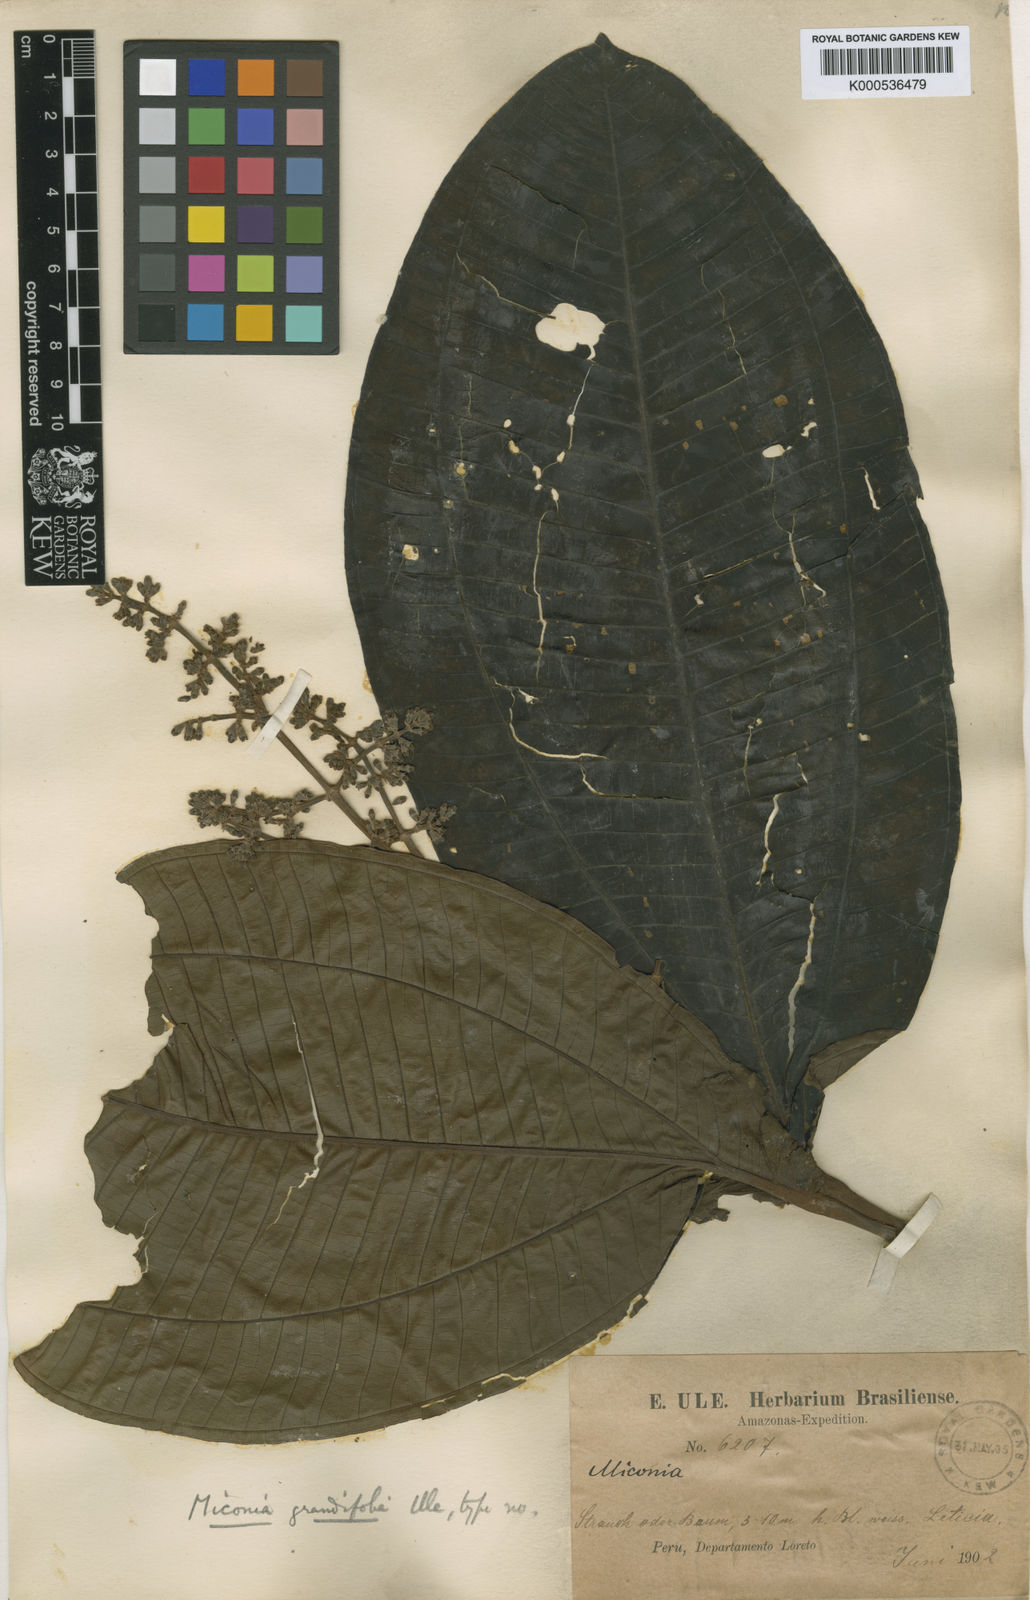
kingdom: Plantae
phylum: Tracheophyta
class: Magnoliopsida
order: Myrtales
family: Melastomataceae
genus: Miconia
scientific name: Miconia grandifoliata
